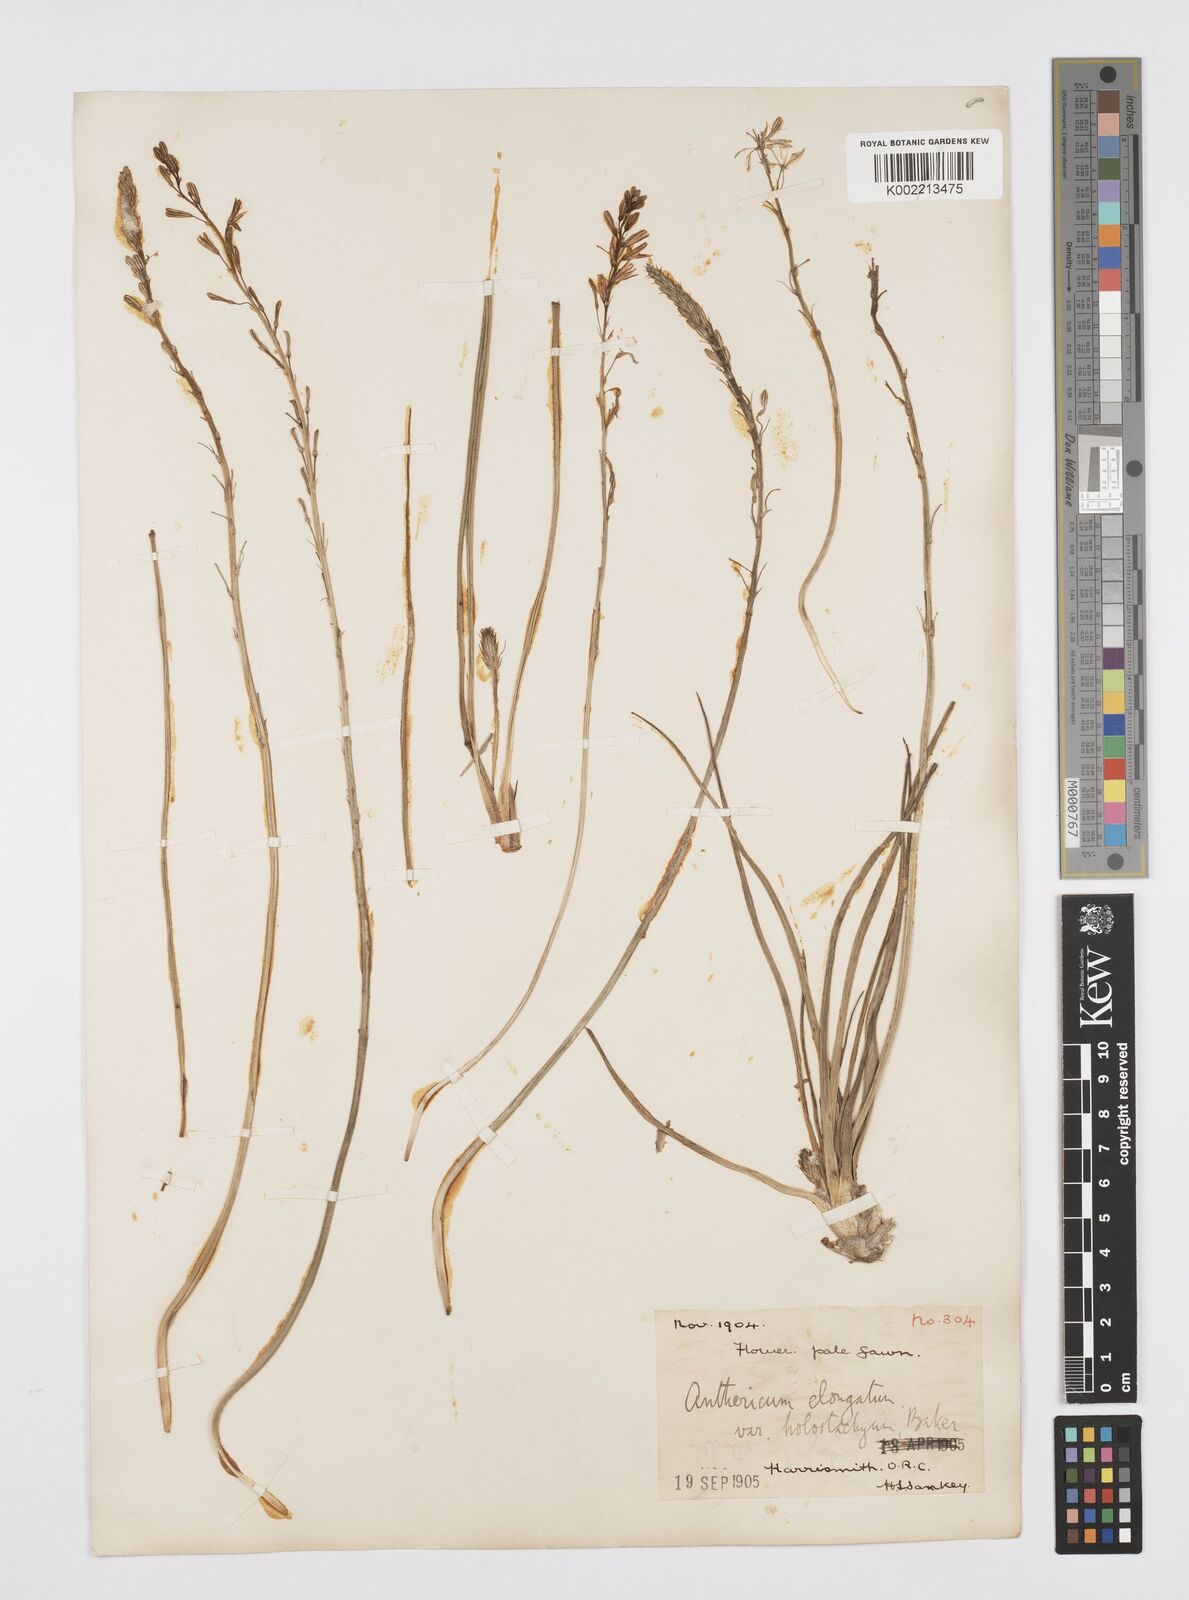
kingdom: Plantae
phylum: Tracheophyta
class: Liliopsida
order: Asparagales
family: Asphodelaceae
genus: Trachyandra
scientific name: Trachyandra saltii
